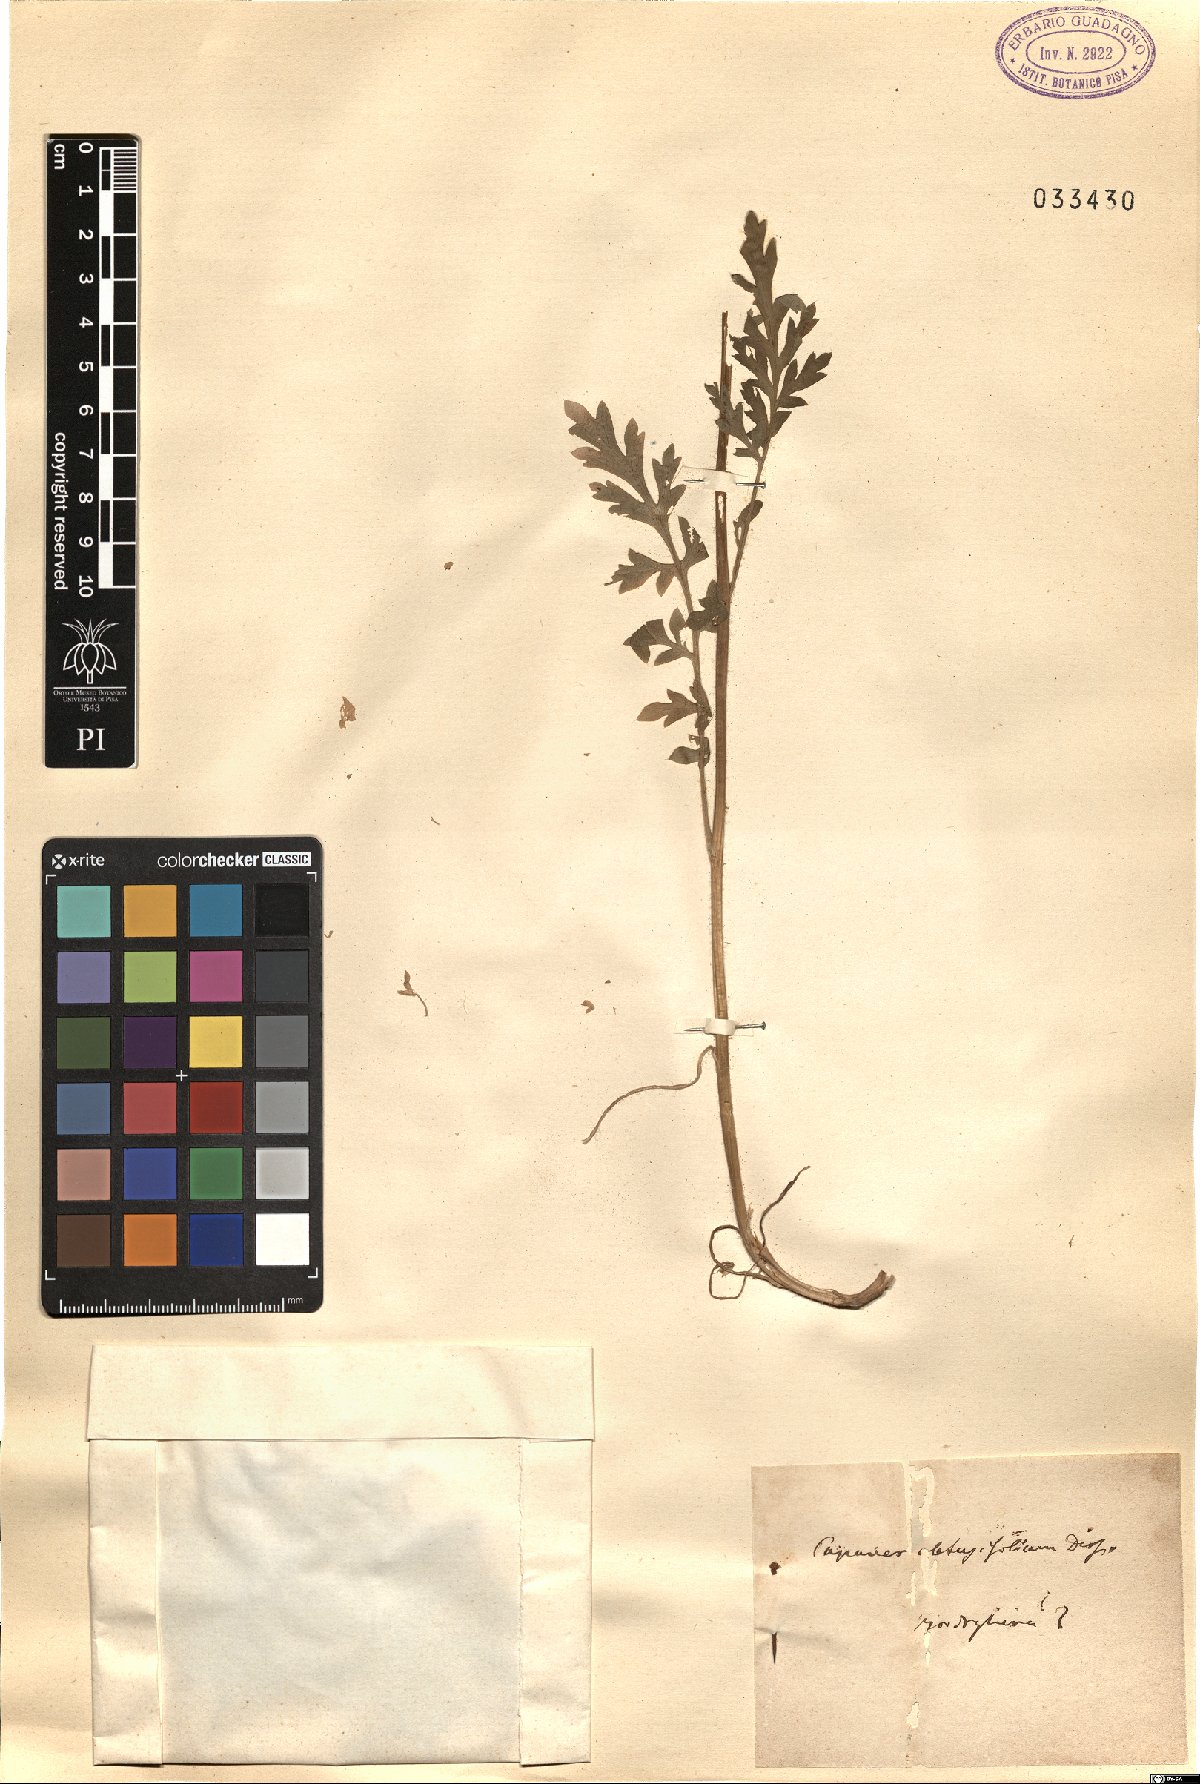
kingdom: Plantae
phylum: Tracheophyta
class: Magnoliopsida
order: Ranunculales
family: Papaveraceae
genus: Papaver
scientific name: Papaver dubium
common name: Long-headed poppy
